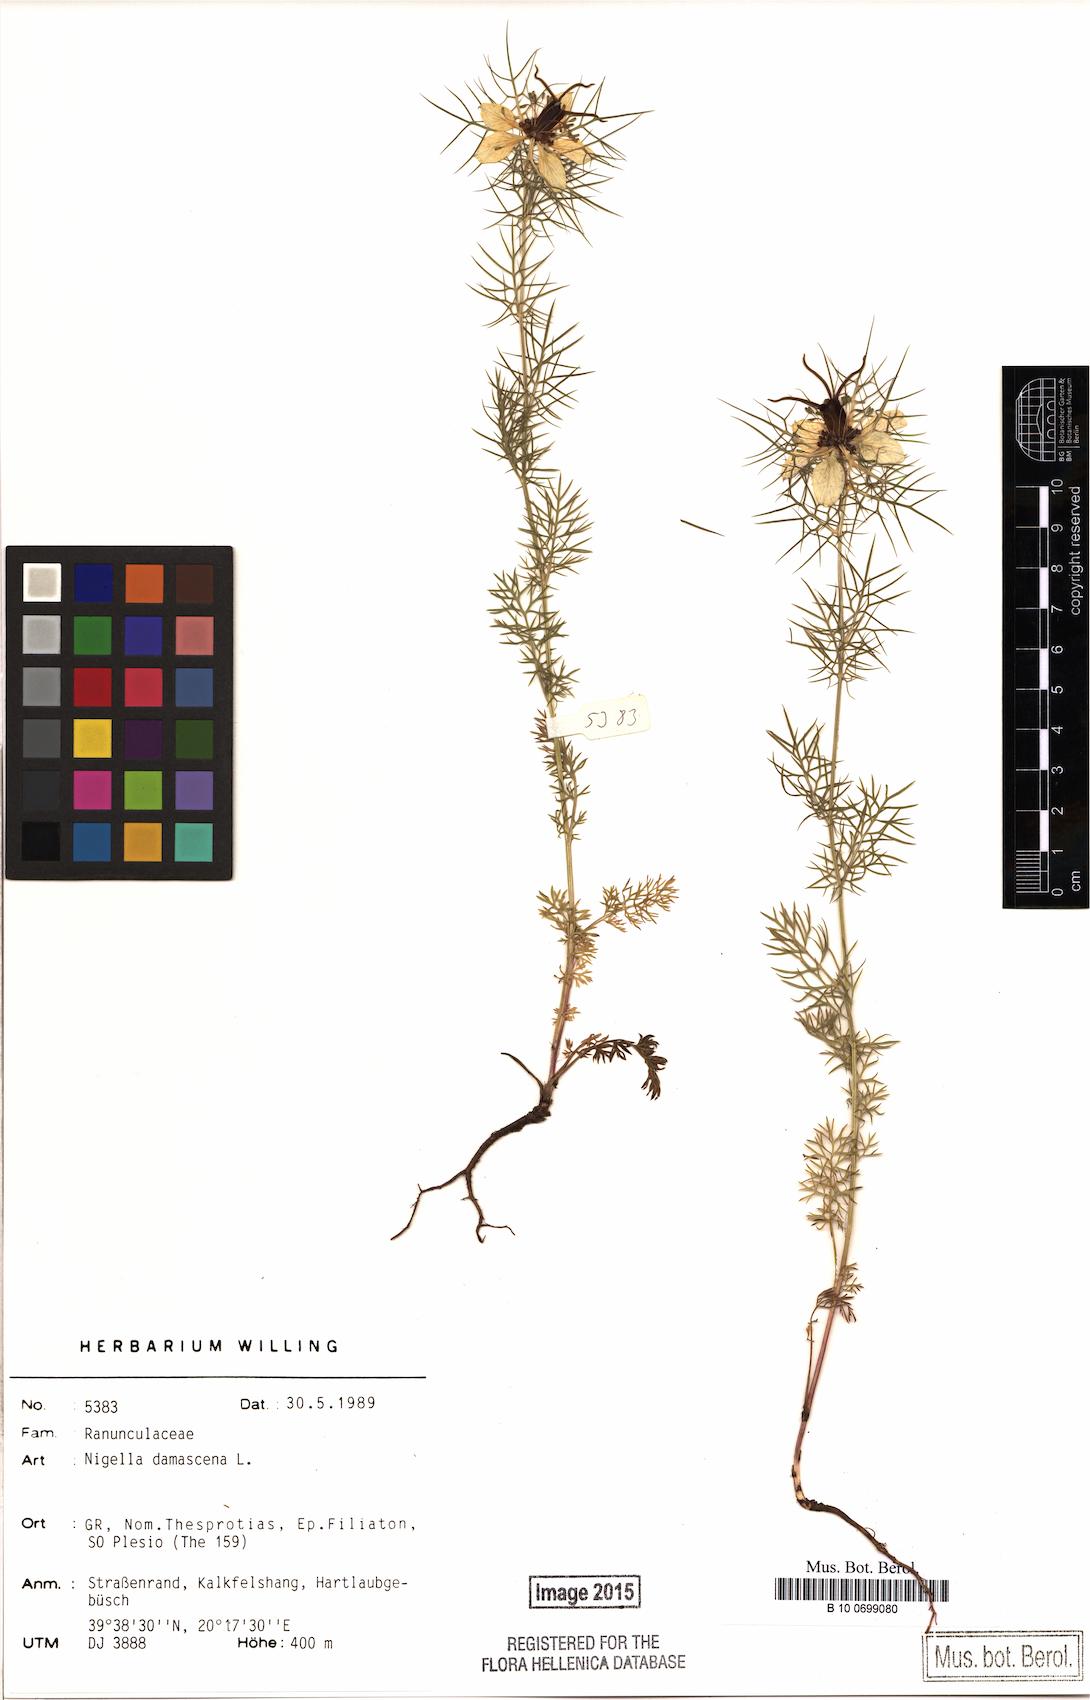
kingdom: Plantae
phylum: Tracheophyta
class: Magnoliopsida
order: Ranunculales
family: Ranunculaceae
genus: Nigella
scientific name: Nigella damascena
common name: Love-in-a-mist
